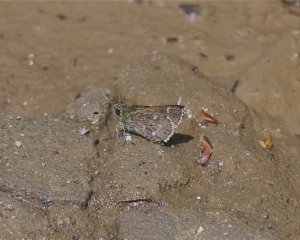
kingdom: Animalia
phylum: Arthropoda
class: Insecta
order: Lepidoptera
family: Hesperiidae
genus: Mastor
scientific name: Mastor hegon
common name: Pepper and Salt Skipper
